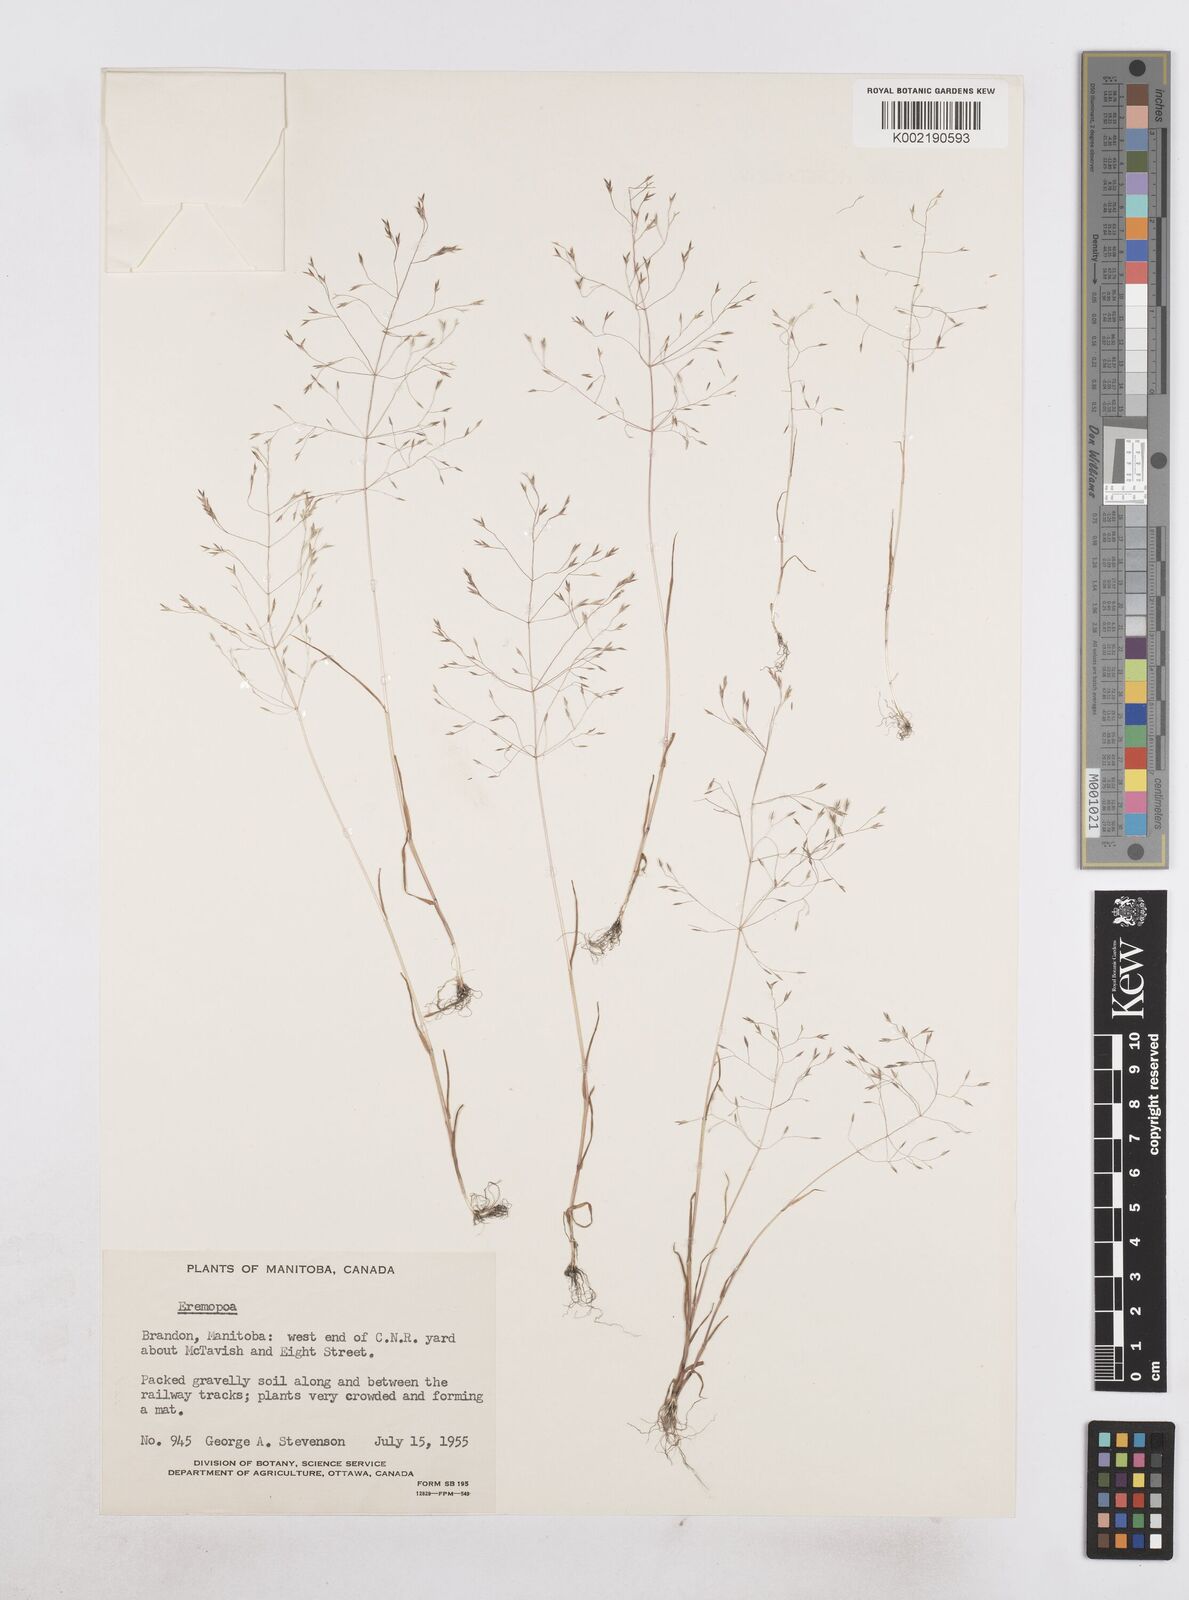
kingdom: Plantae
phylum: Tracheophyta
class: Liliopsida
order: Poales
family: Poaceae
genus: Poa
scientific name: Poa diaphora
